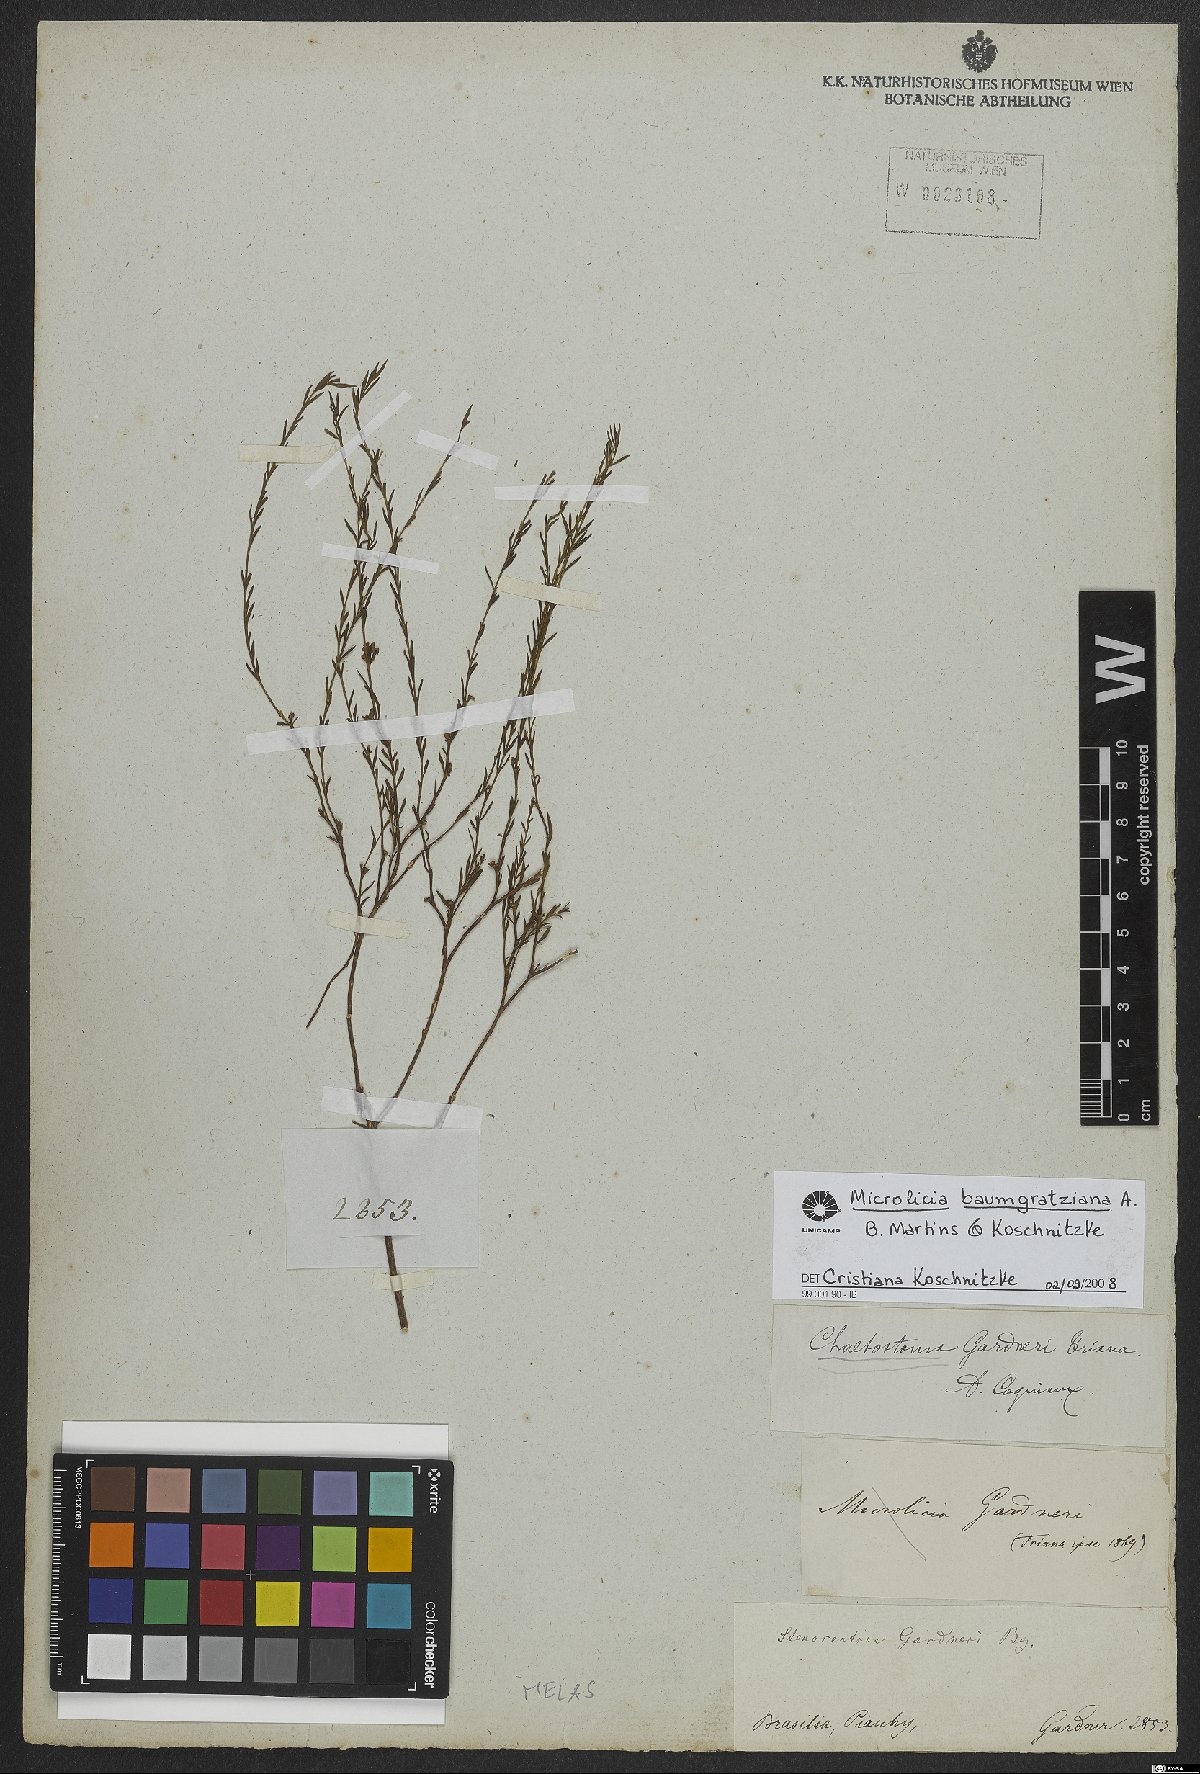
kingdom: Plantae
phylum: Tracheophyta
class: Magnoliopsida
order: Myrtales
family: Melastomataceae
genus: Microlicia
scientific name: Microlicia baumgratziana
